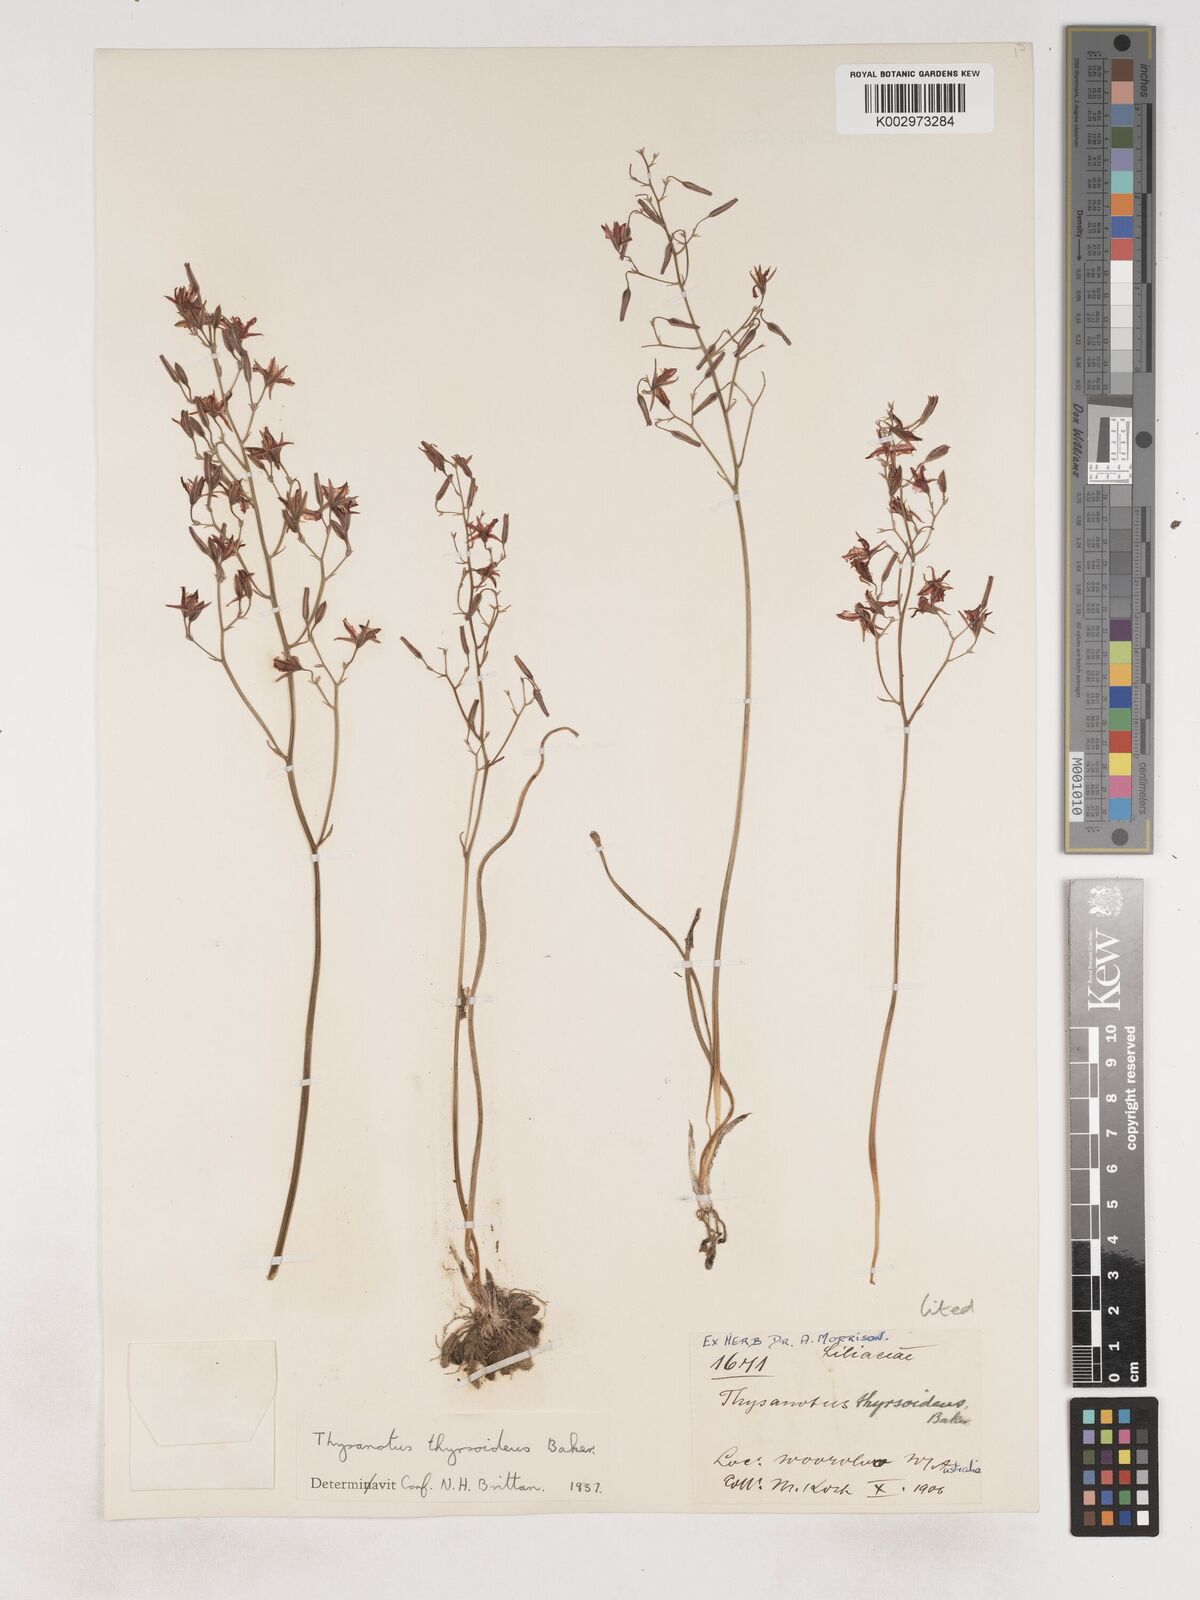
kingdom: Plantae
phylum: Tracheophyta
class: Liliopsida
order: Asparagales
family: Asparagaceae
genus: Thysanotus
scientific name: Thysanotus thyrsoideus
